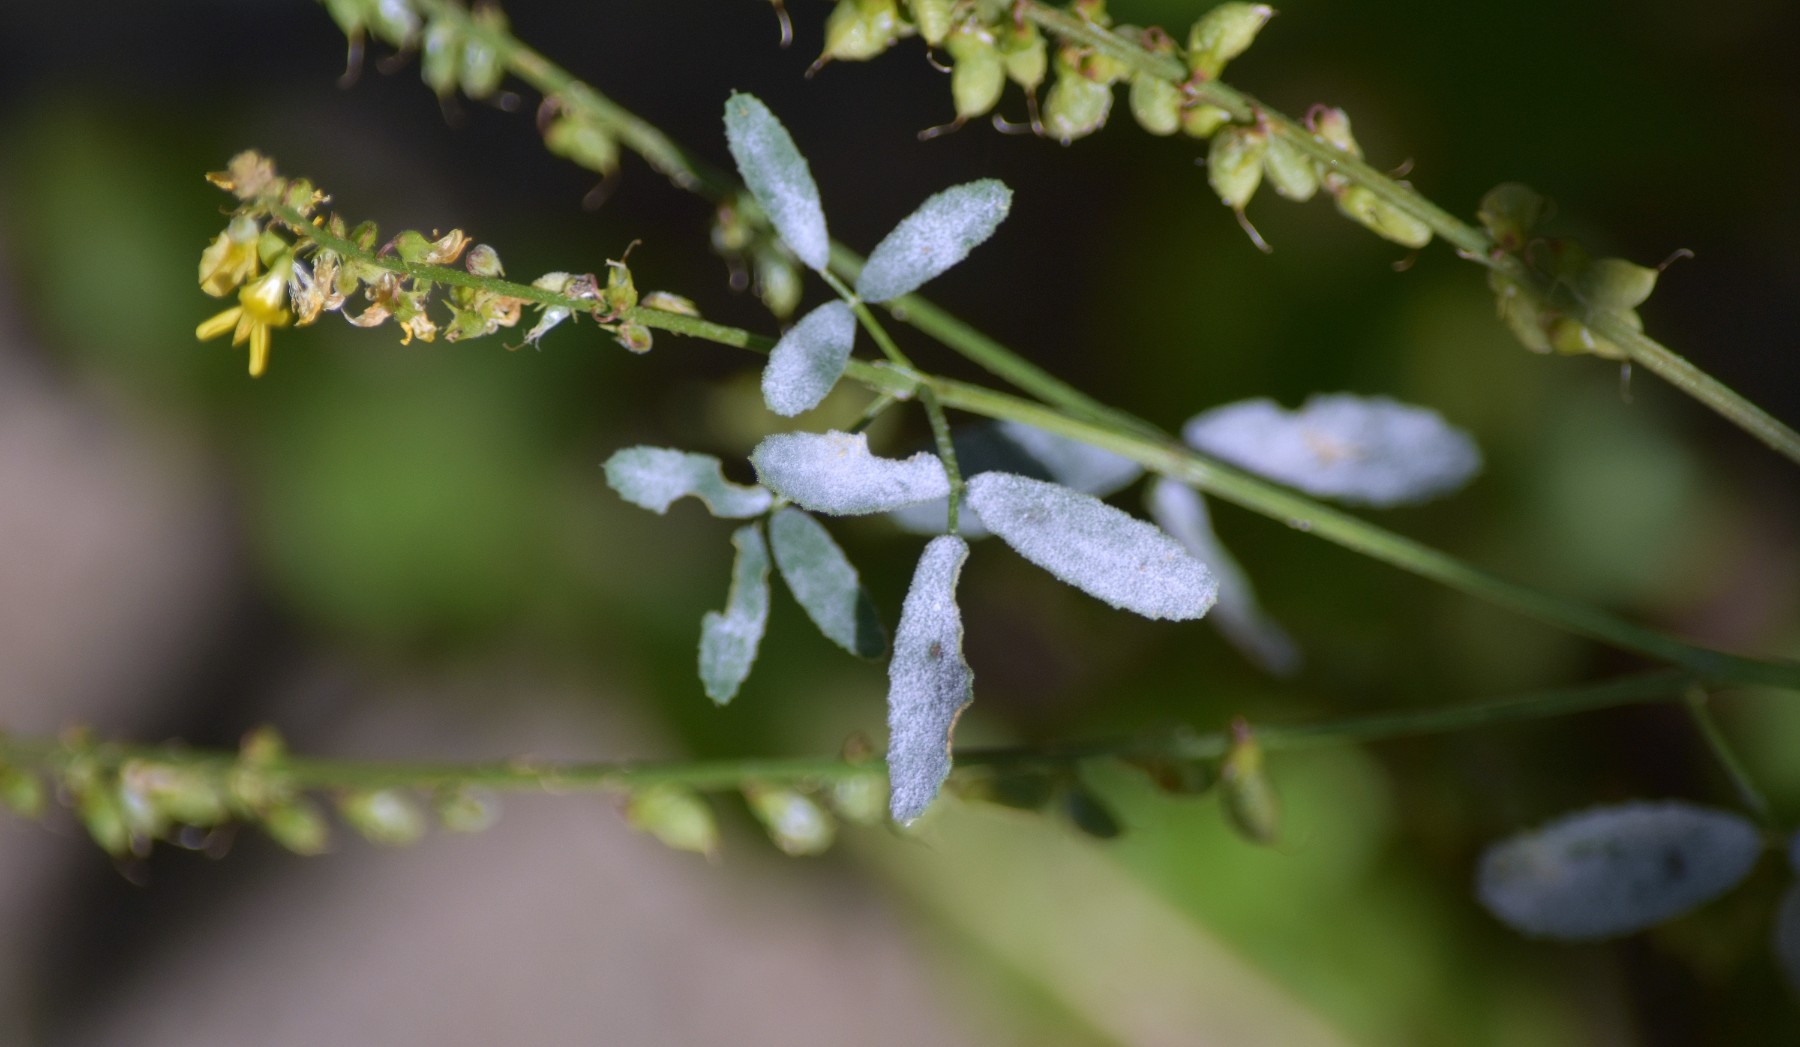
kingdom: Fungi
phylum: Ascomycota
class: Leotiomycetes
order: Helotiales
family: Erysiphaceae
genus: Erysiphe
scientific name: Erysiphe
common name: meldug
